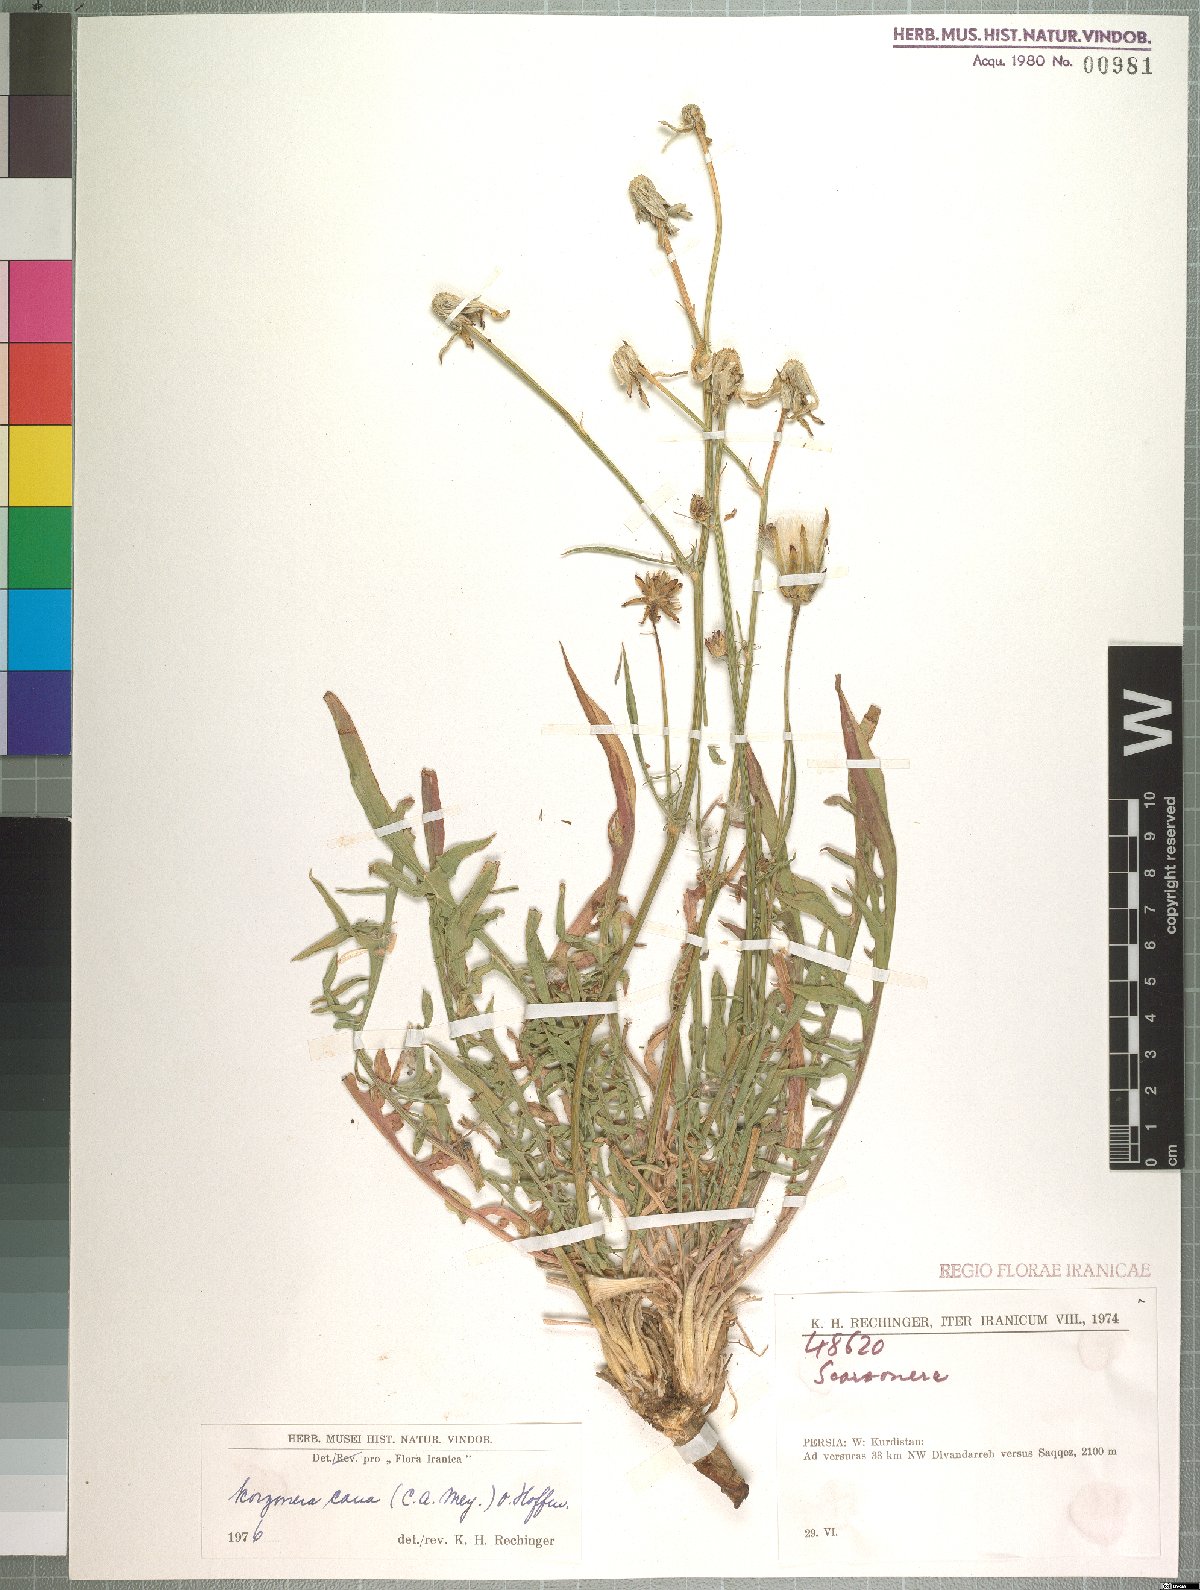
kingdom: Plantae
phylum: Tracheophyta
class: Magnoliopsida
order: Asterales
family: Asteraceae
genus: Scorzonera
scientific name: Scorzonera cana
